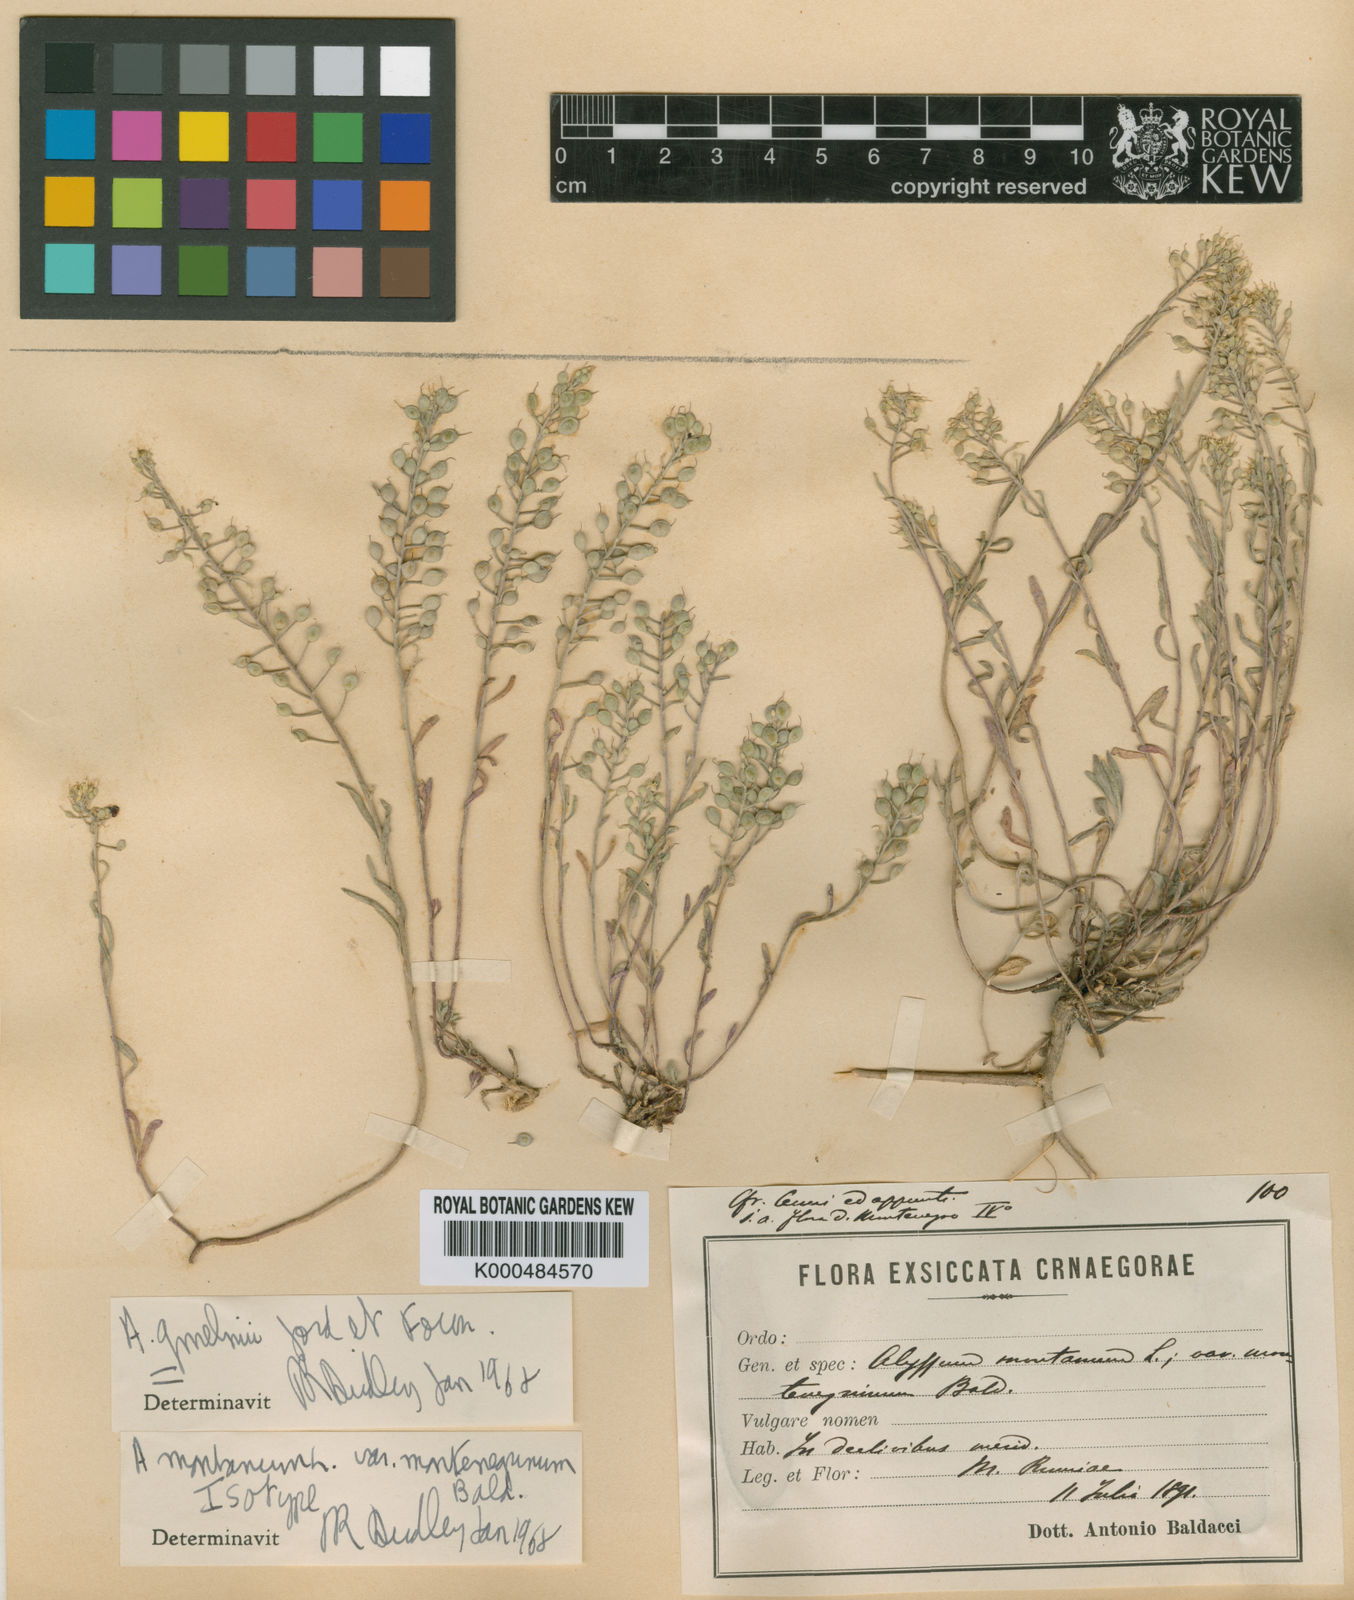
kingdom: Plantae
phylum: Tracheophyta
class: Magnoliopsida
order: Brassicales
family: Brassicaceae
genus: Alyssum
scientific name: Alyssum montanum
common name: Mountain alison
